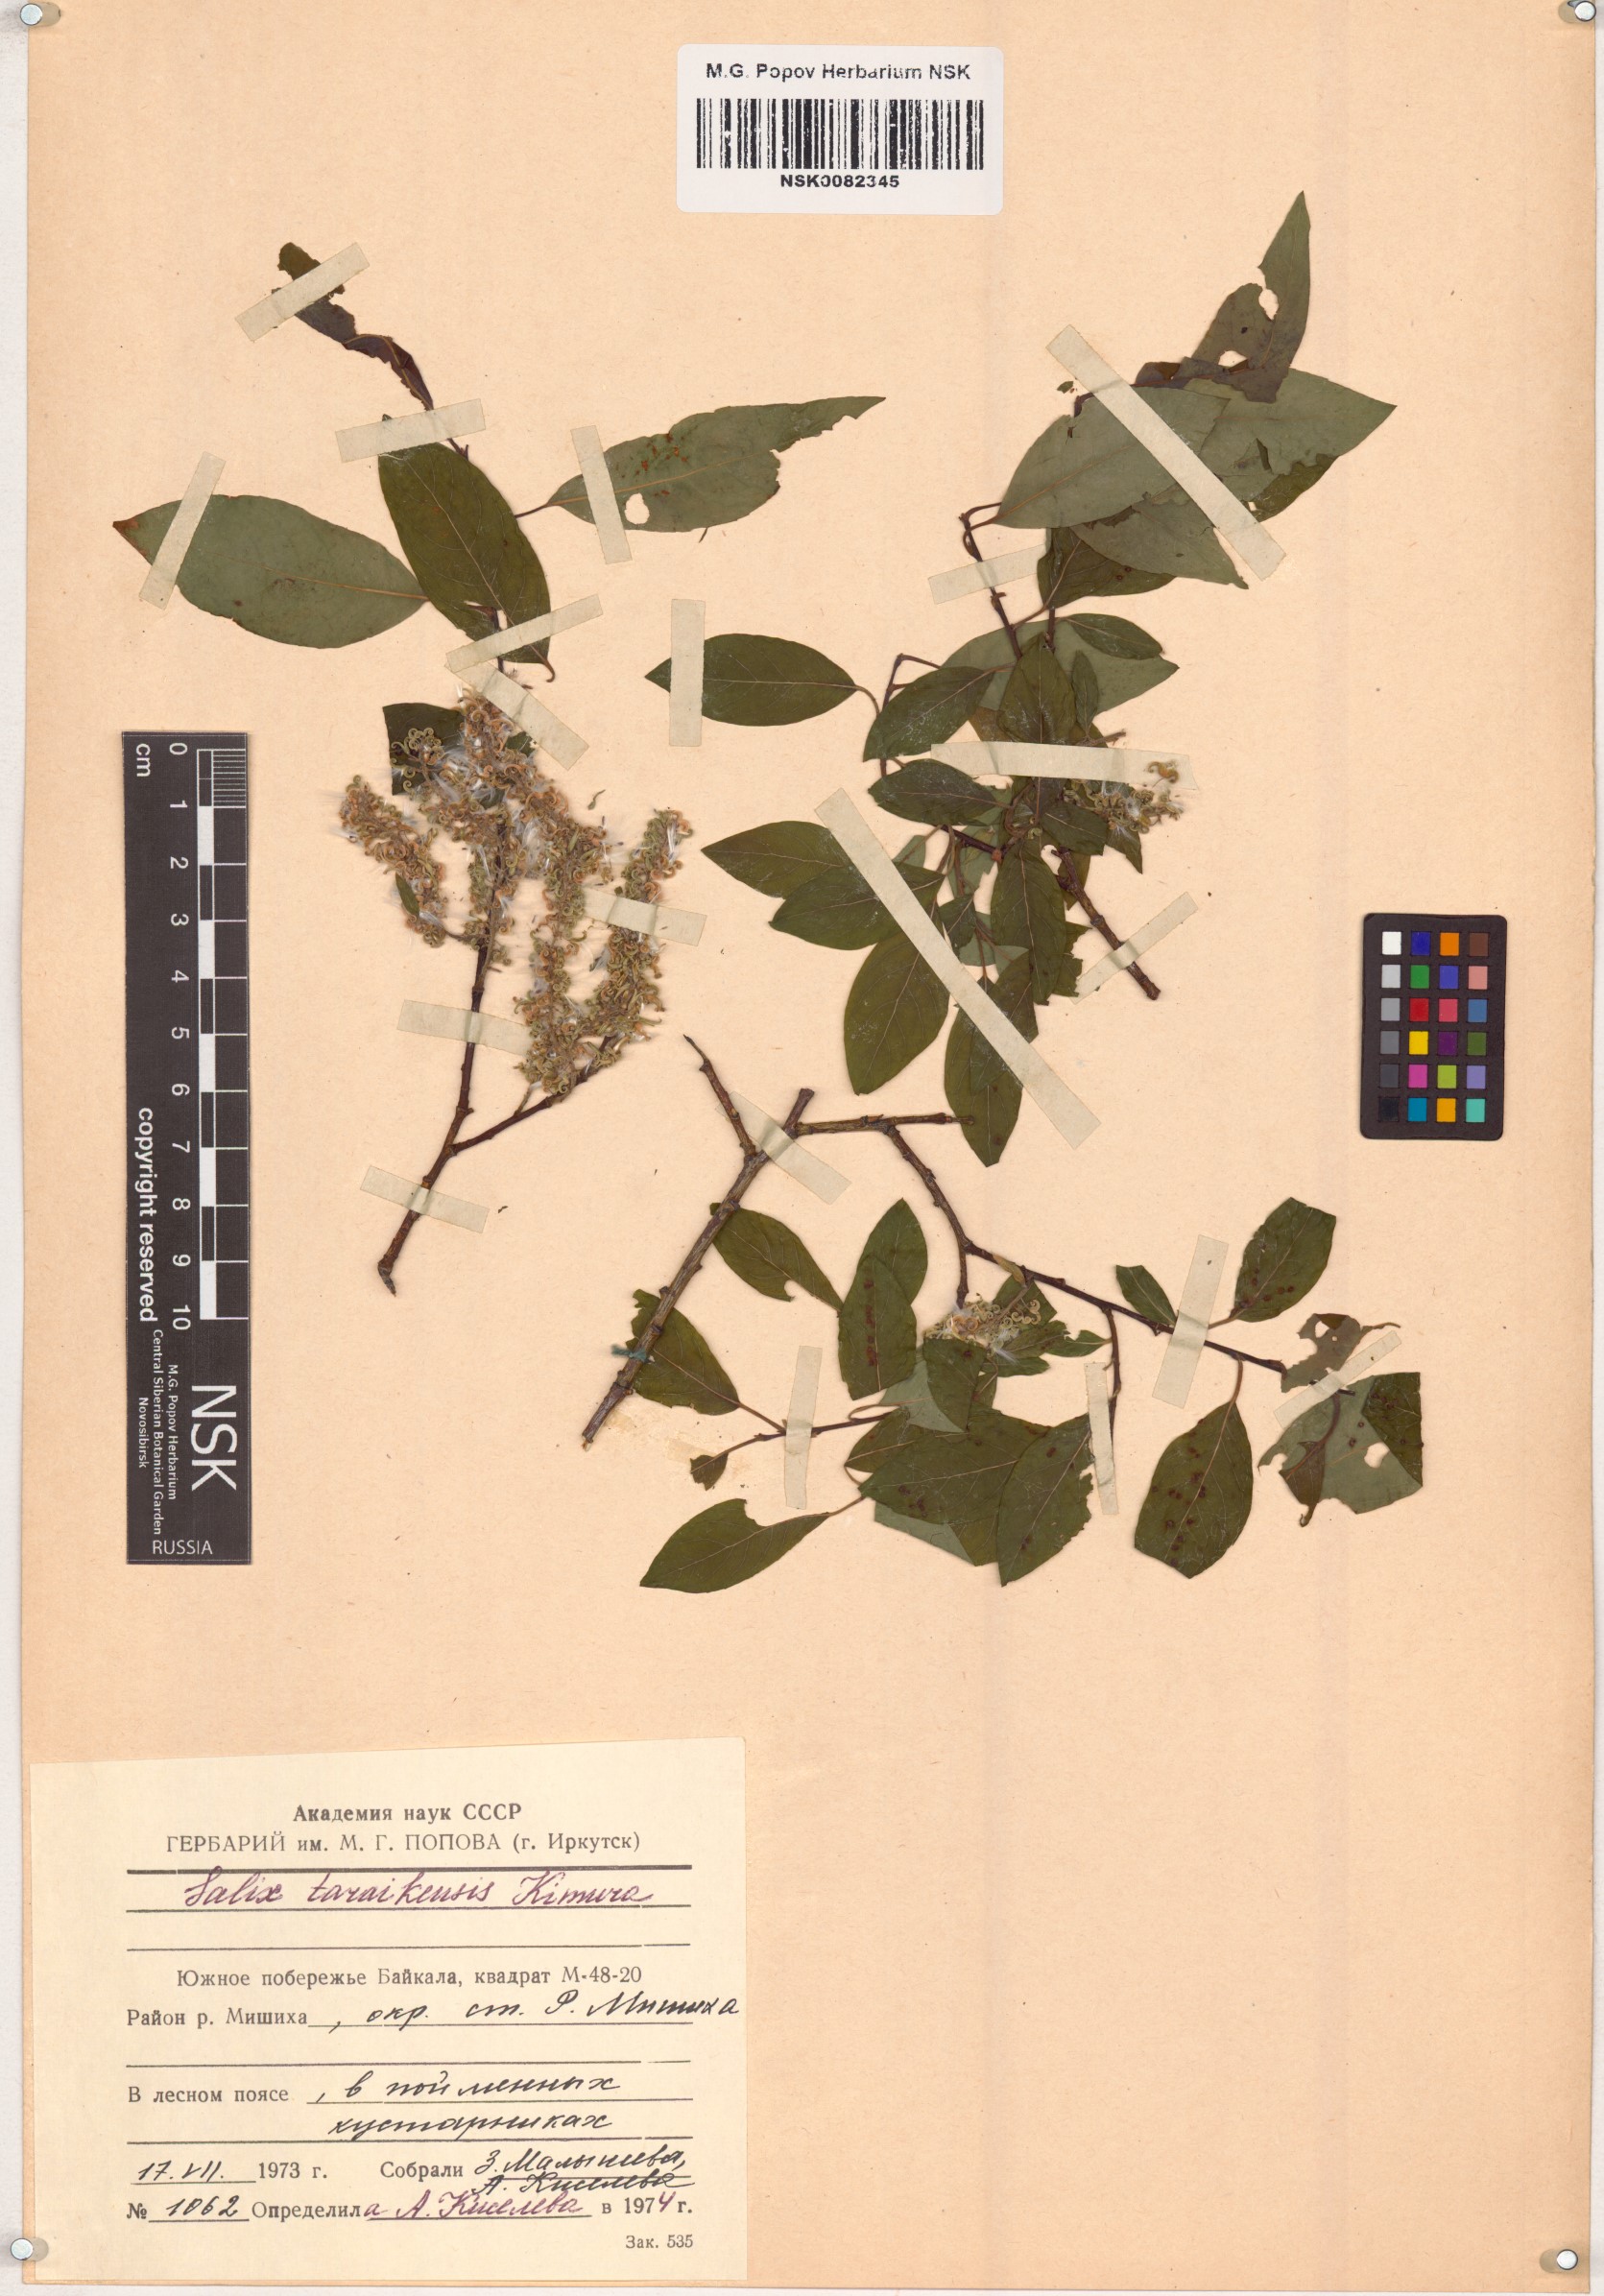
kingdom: Plantae
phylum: Tracheophyta
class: Magnoliopsida
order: Malpighiales
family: Salicaceae
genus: Salix
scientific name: Salix taraikensis
